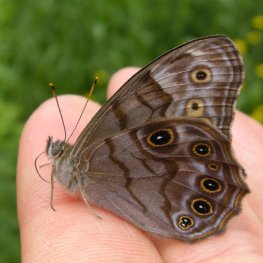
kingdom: Animalia
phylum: Arthropoda
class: Insecta
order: Lepidoptera
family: Nymphalidae
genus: Lethe
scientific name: Lethe anthedon
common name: Northern Pearly-Eye
